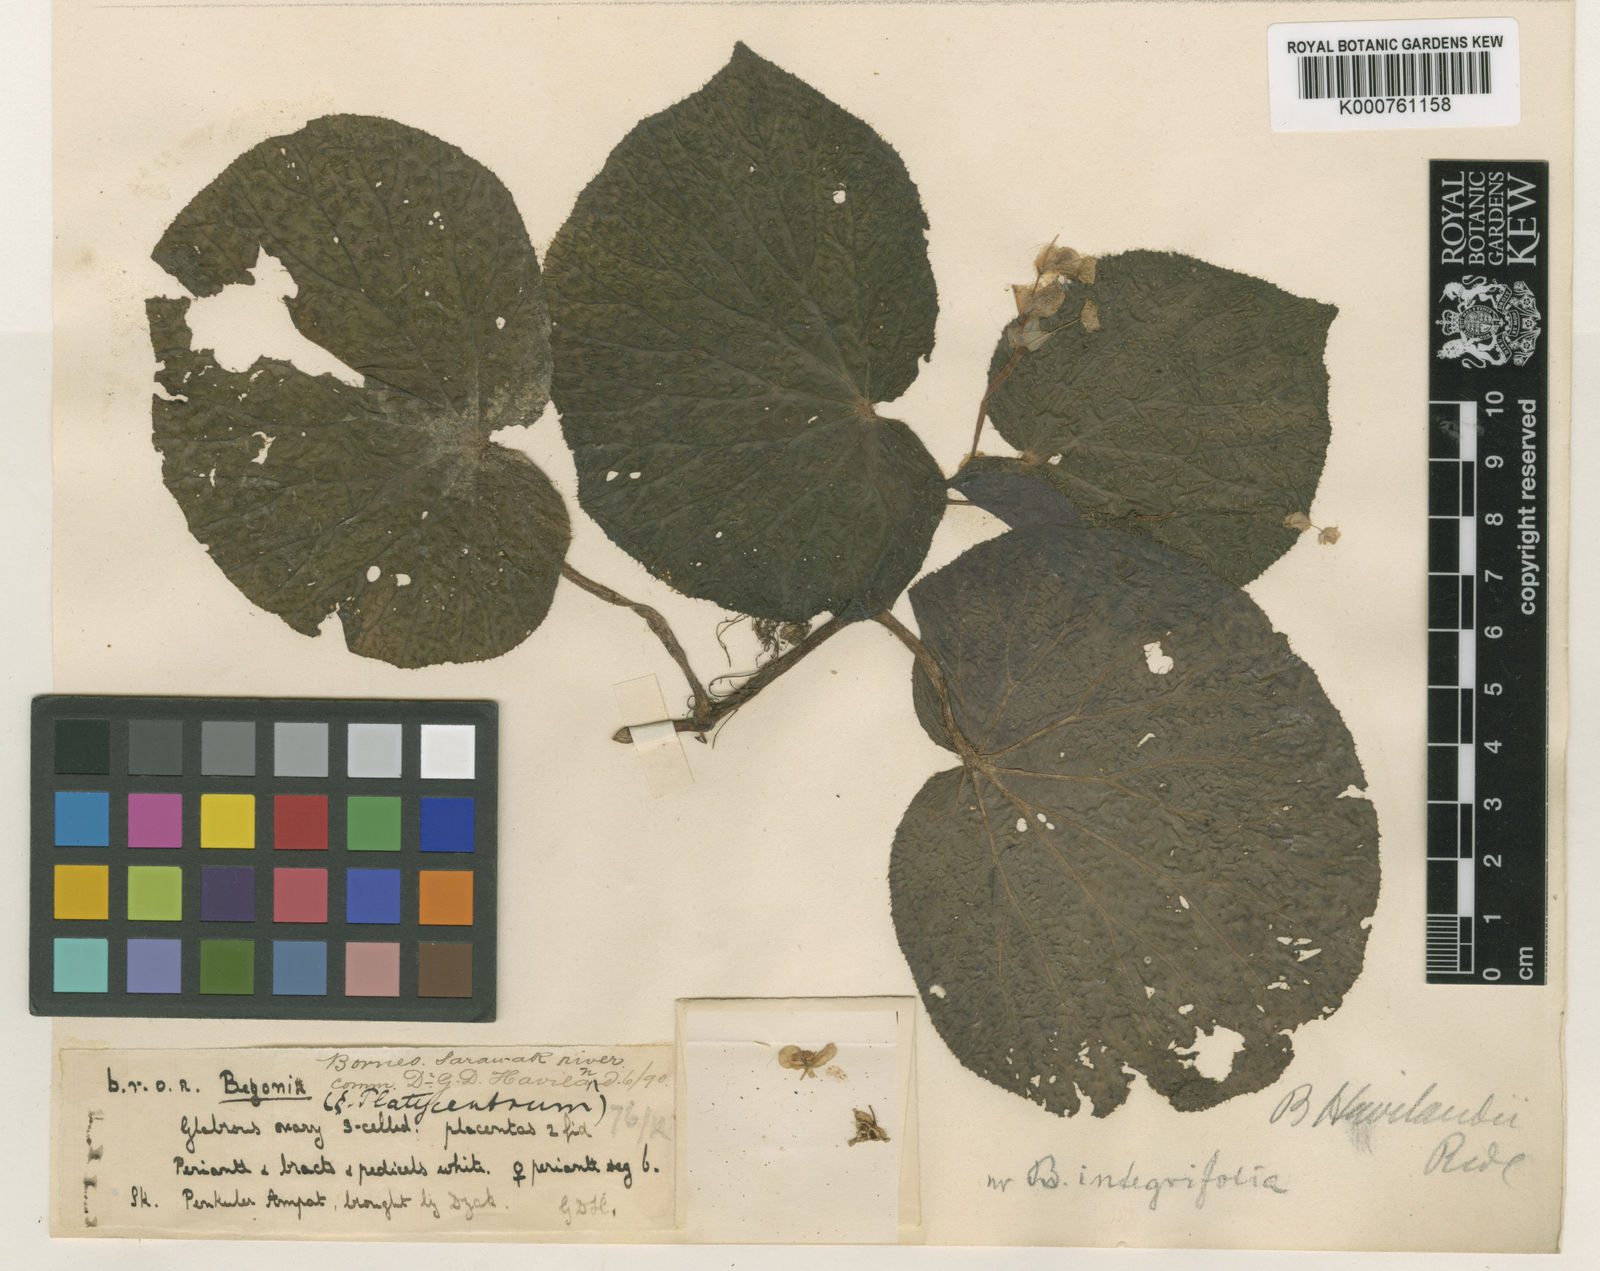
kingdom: Plantae
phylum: Tracheophyta
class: Magnoliopsida
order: Cucurbitales
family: Begoniaceae
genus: Begonia
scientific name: Begonia havilandii
